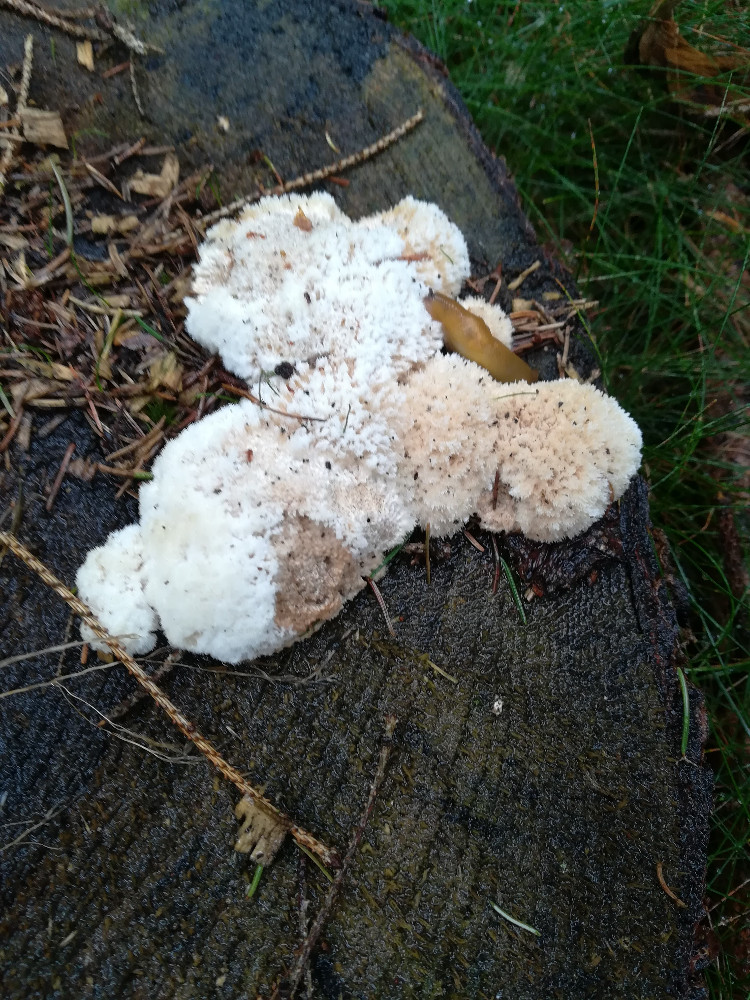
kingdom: Fungi
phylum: Basidiomycota
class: Agaricomycetes
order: Polyporales
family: Dacryobolaceae
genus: Postia
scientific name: Postia ptychogaster
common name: støvende kødporesvamp
